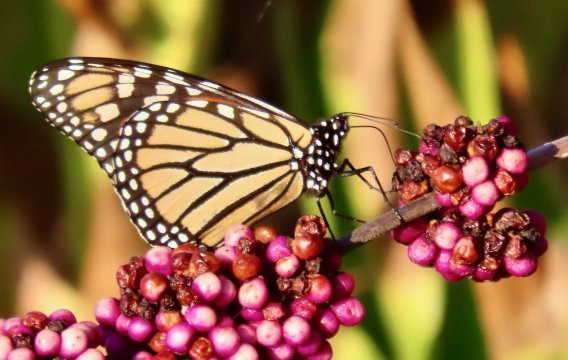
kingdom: Animalia
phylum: Arthropoda
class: Insecta
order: Lepidoptera
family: Nymphalidae
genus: Danaus
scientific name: Danaus plexippus
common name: Monarch
